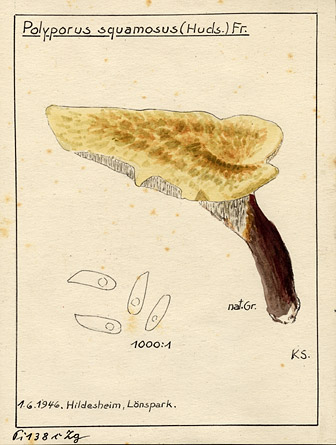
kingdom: Fungi
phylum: Basidiomycota
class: Agaricomycetes
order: Polyporales
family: Polyporaceae
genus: Cerioporus
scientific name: Cerioporus squamosus
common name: Dryad's saddle
